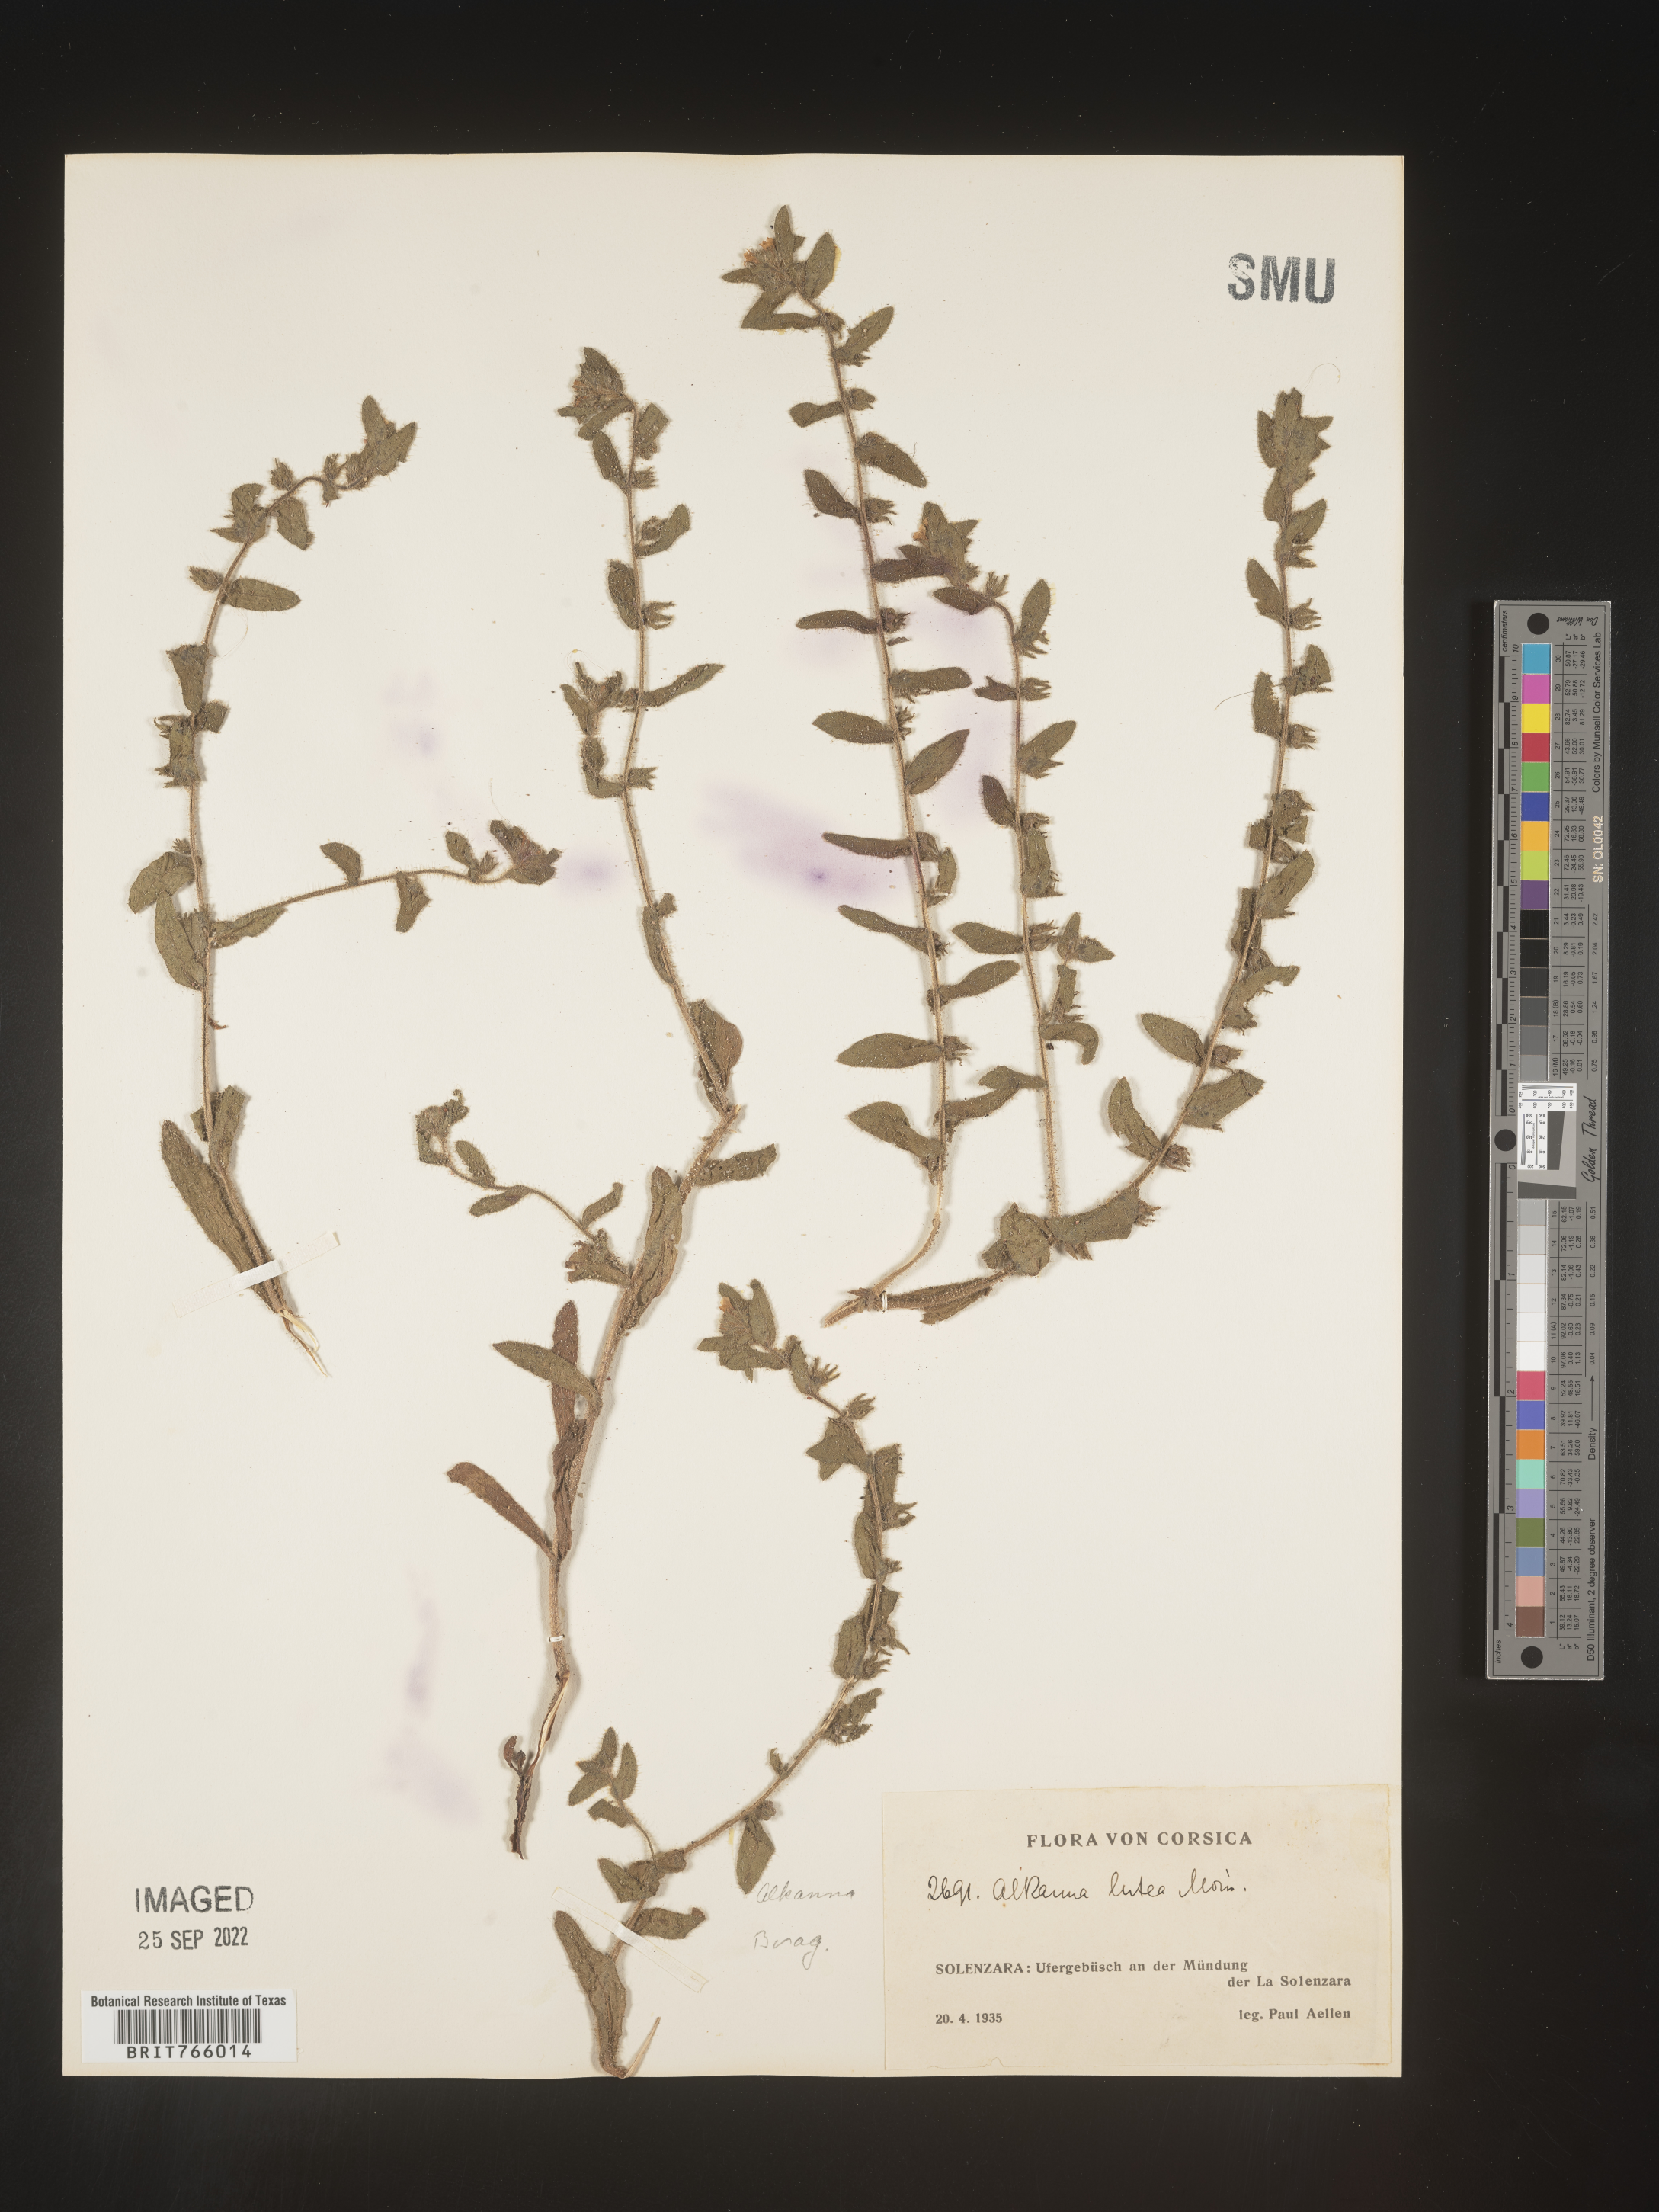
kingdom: Plantae
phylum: Tracheophyta
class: Magnoliopsida
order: Boraginales
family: Boraginaceae
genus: Alkanna
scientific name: Alkanna
